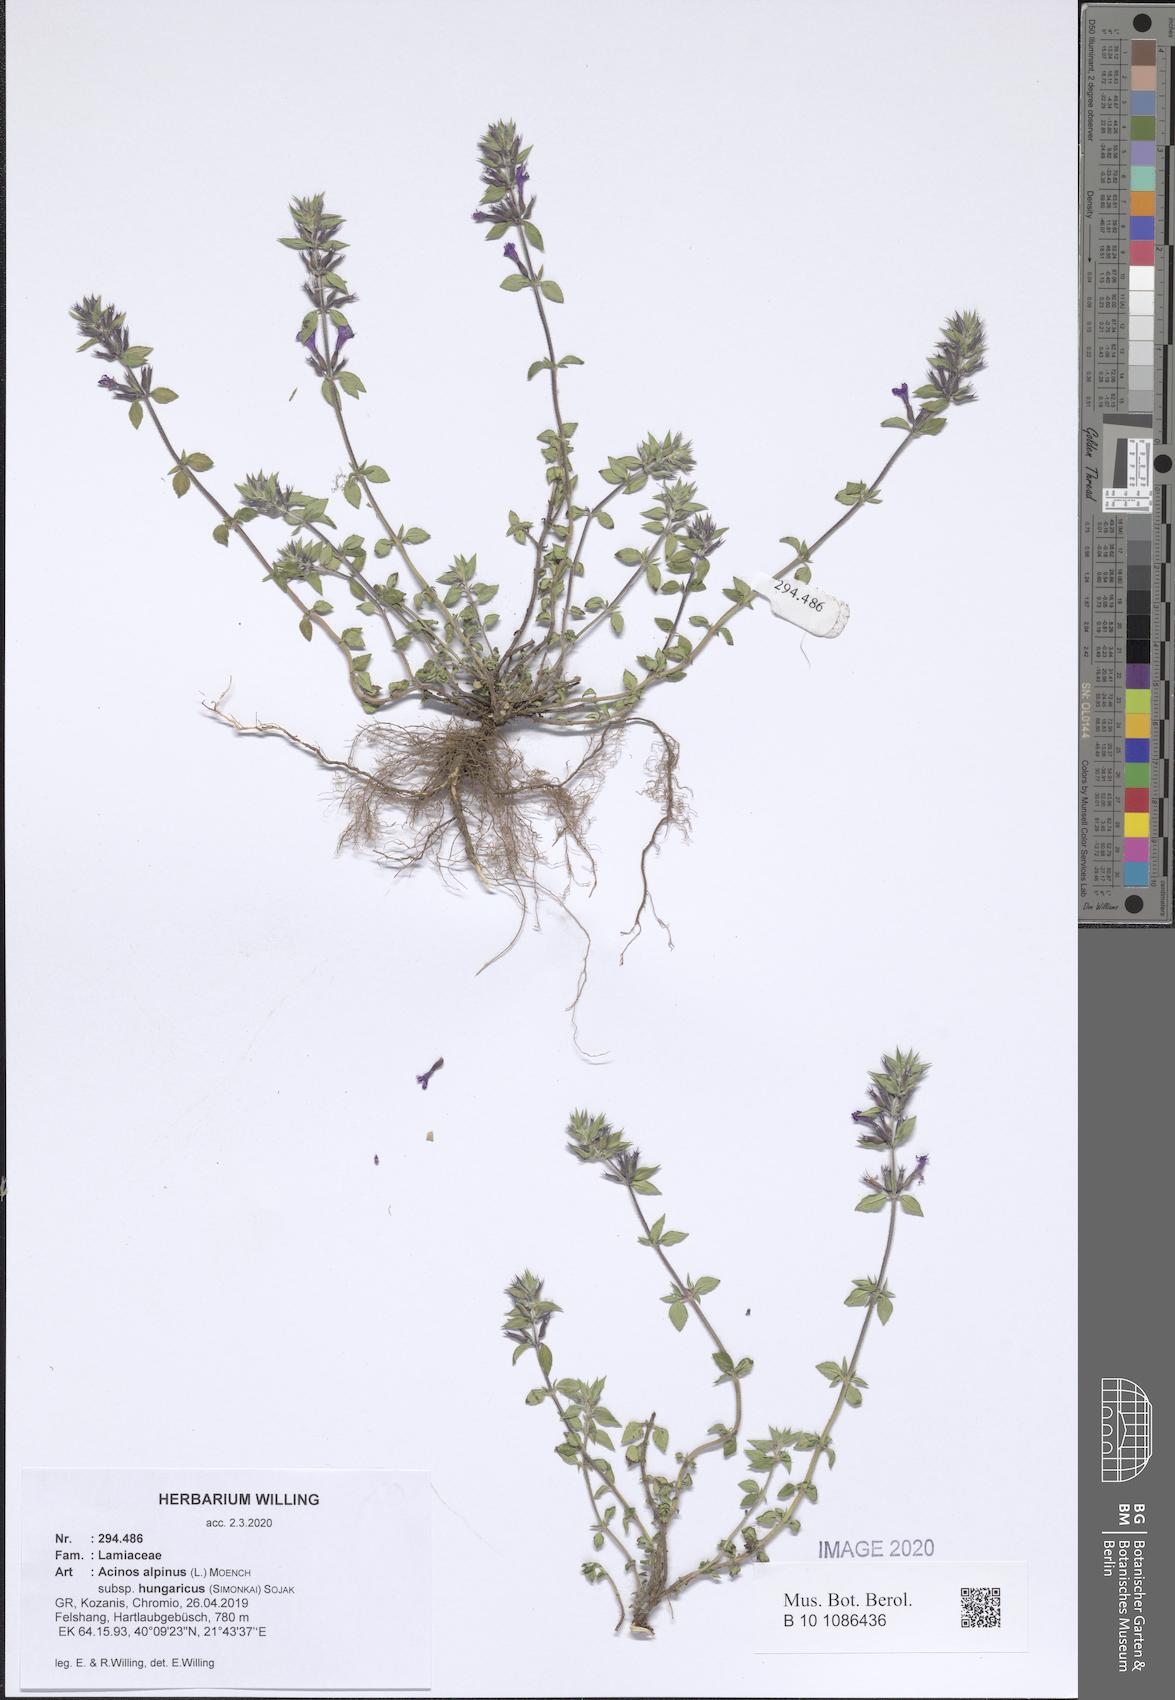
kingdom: Plantae
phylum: Tracheophyta
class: Magnoliopsida
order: Lamiales
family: Lamiaceae
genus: Clinopodium
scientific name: Clinopodium alpinum
